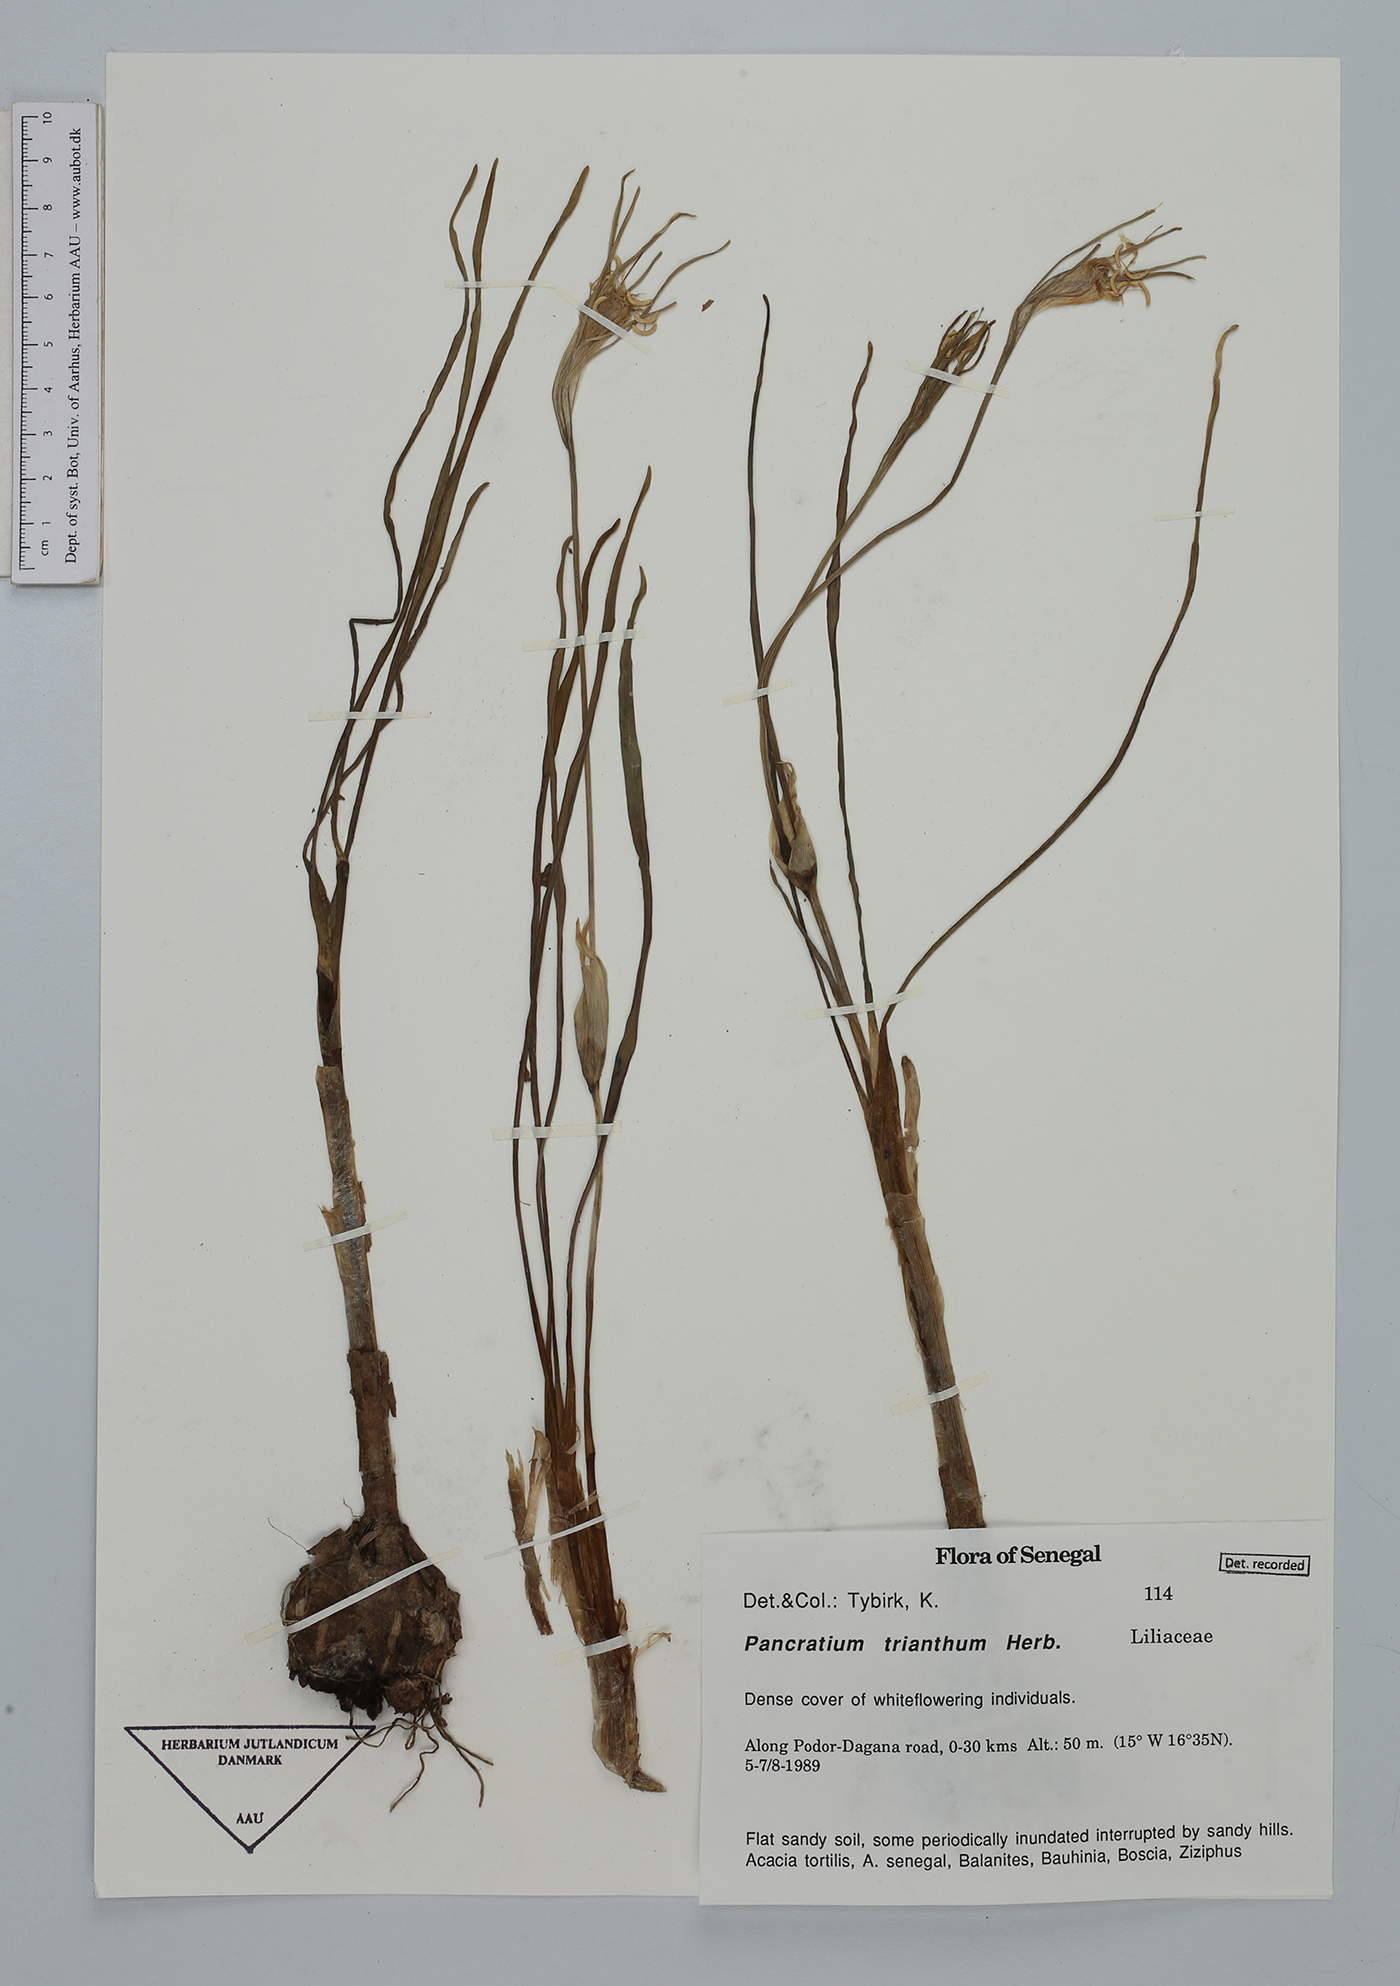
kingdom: Plantae
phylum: Tracheophyta
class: Liliopsida
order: Asparagales
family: Amaryllidaceae
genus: Pancratium
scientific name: Pancratium trianthum
